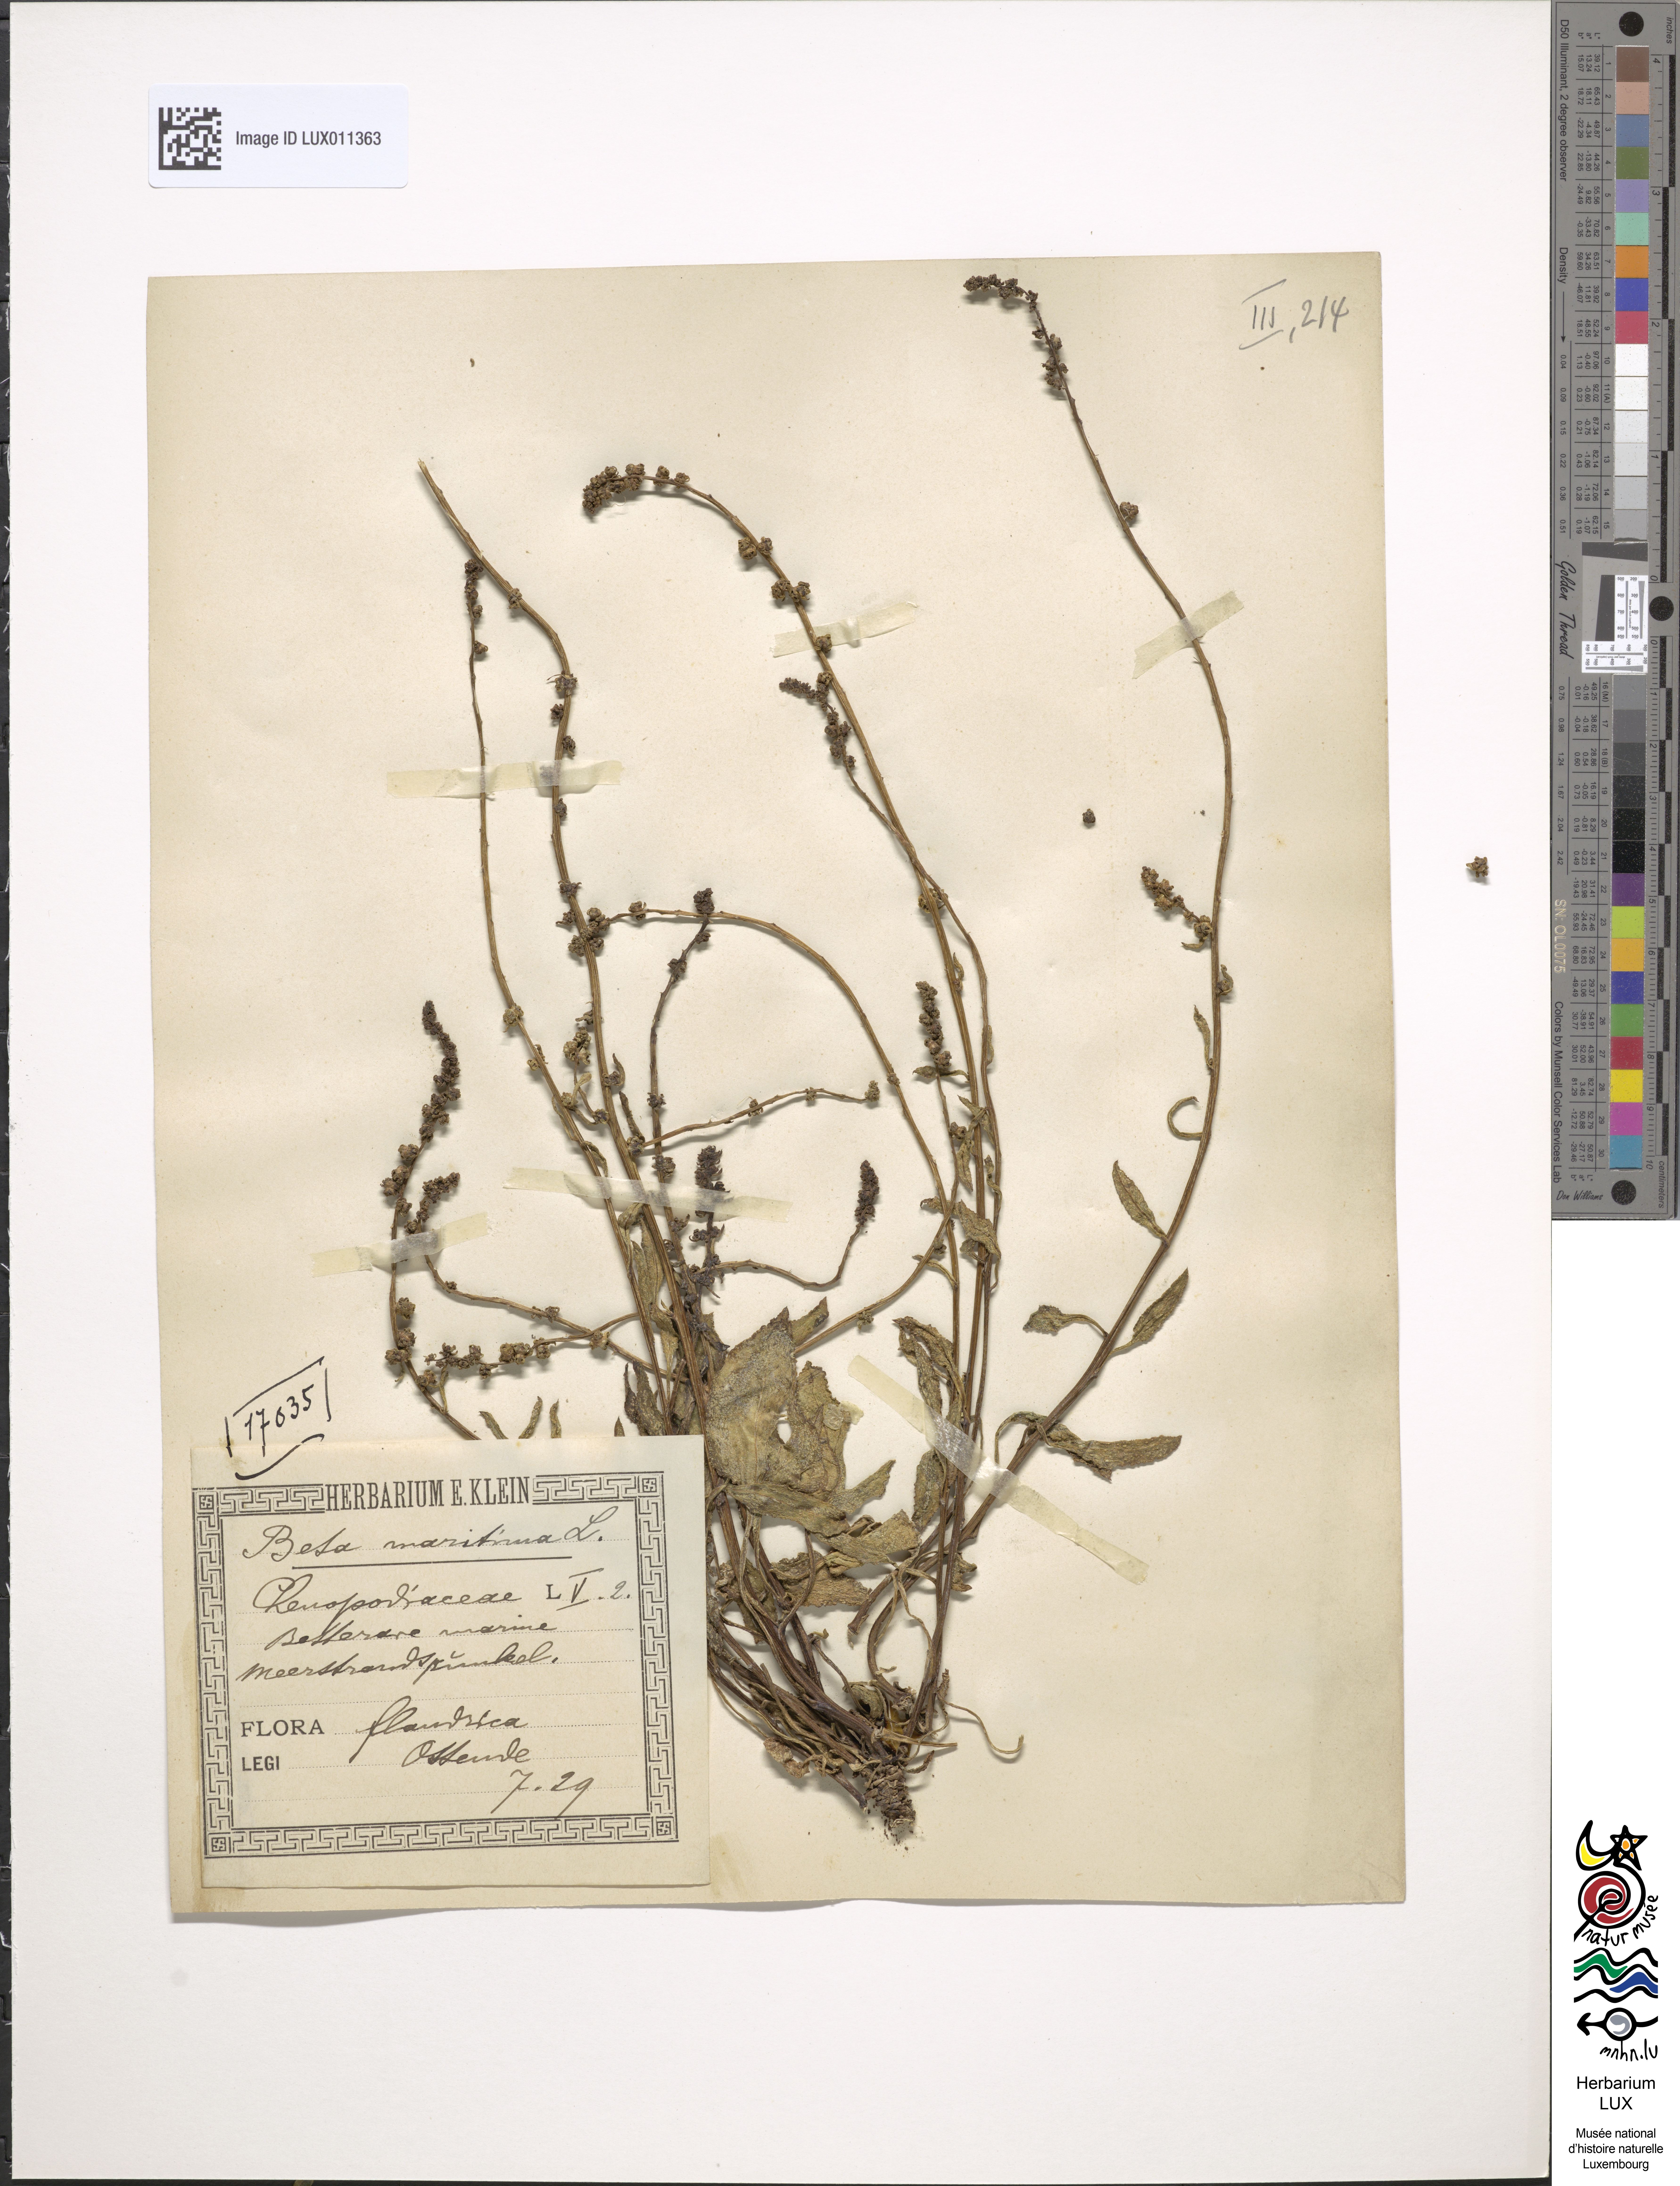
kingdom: Plantae
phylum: Tracheophyta
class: Magnoliopsida
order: Caryophyllales
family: Amaranthaceae
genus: Beta
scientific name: Beta maritima
